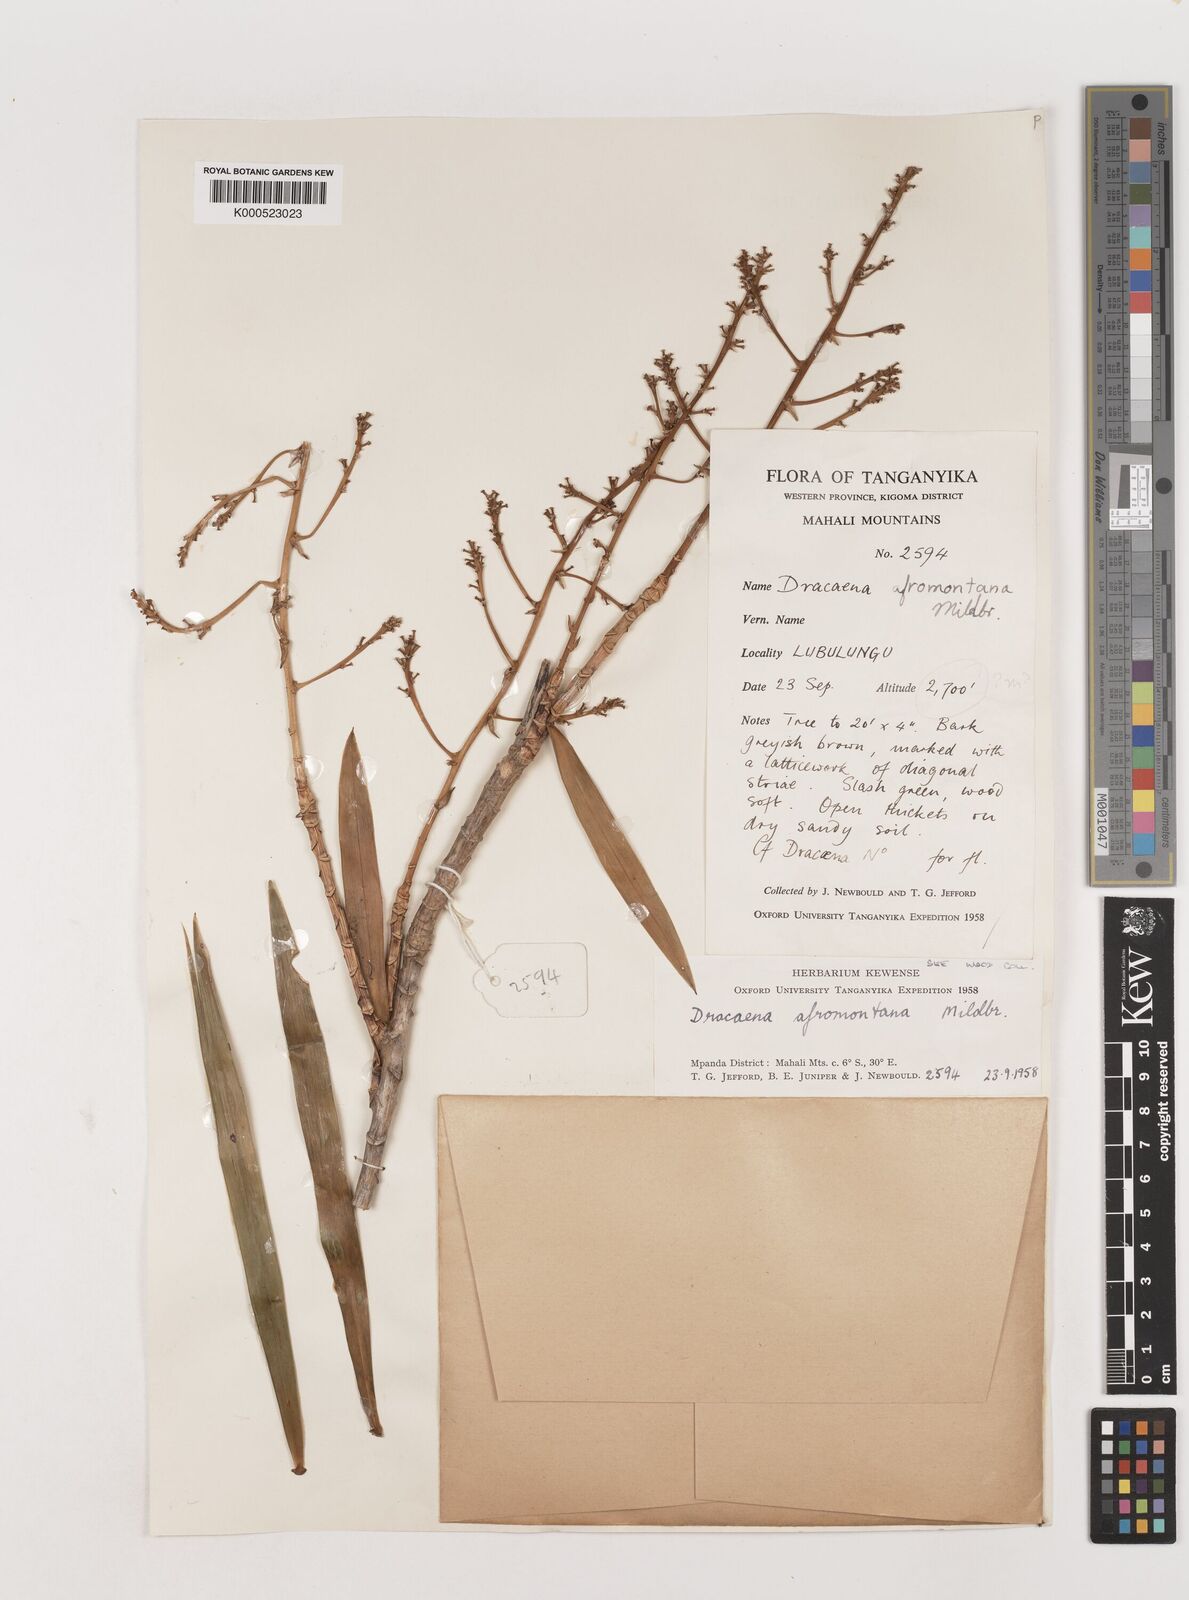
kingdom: Plantae
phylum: Tracheophyta
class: Liliopsida
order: Asparagales
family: Asparagaceae
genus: Dracaena
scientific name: Dracaena
